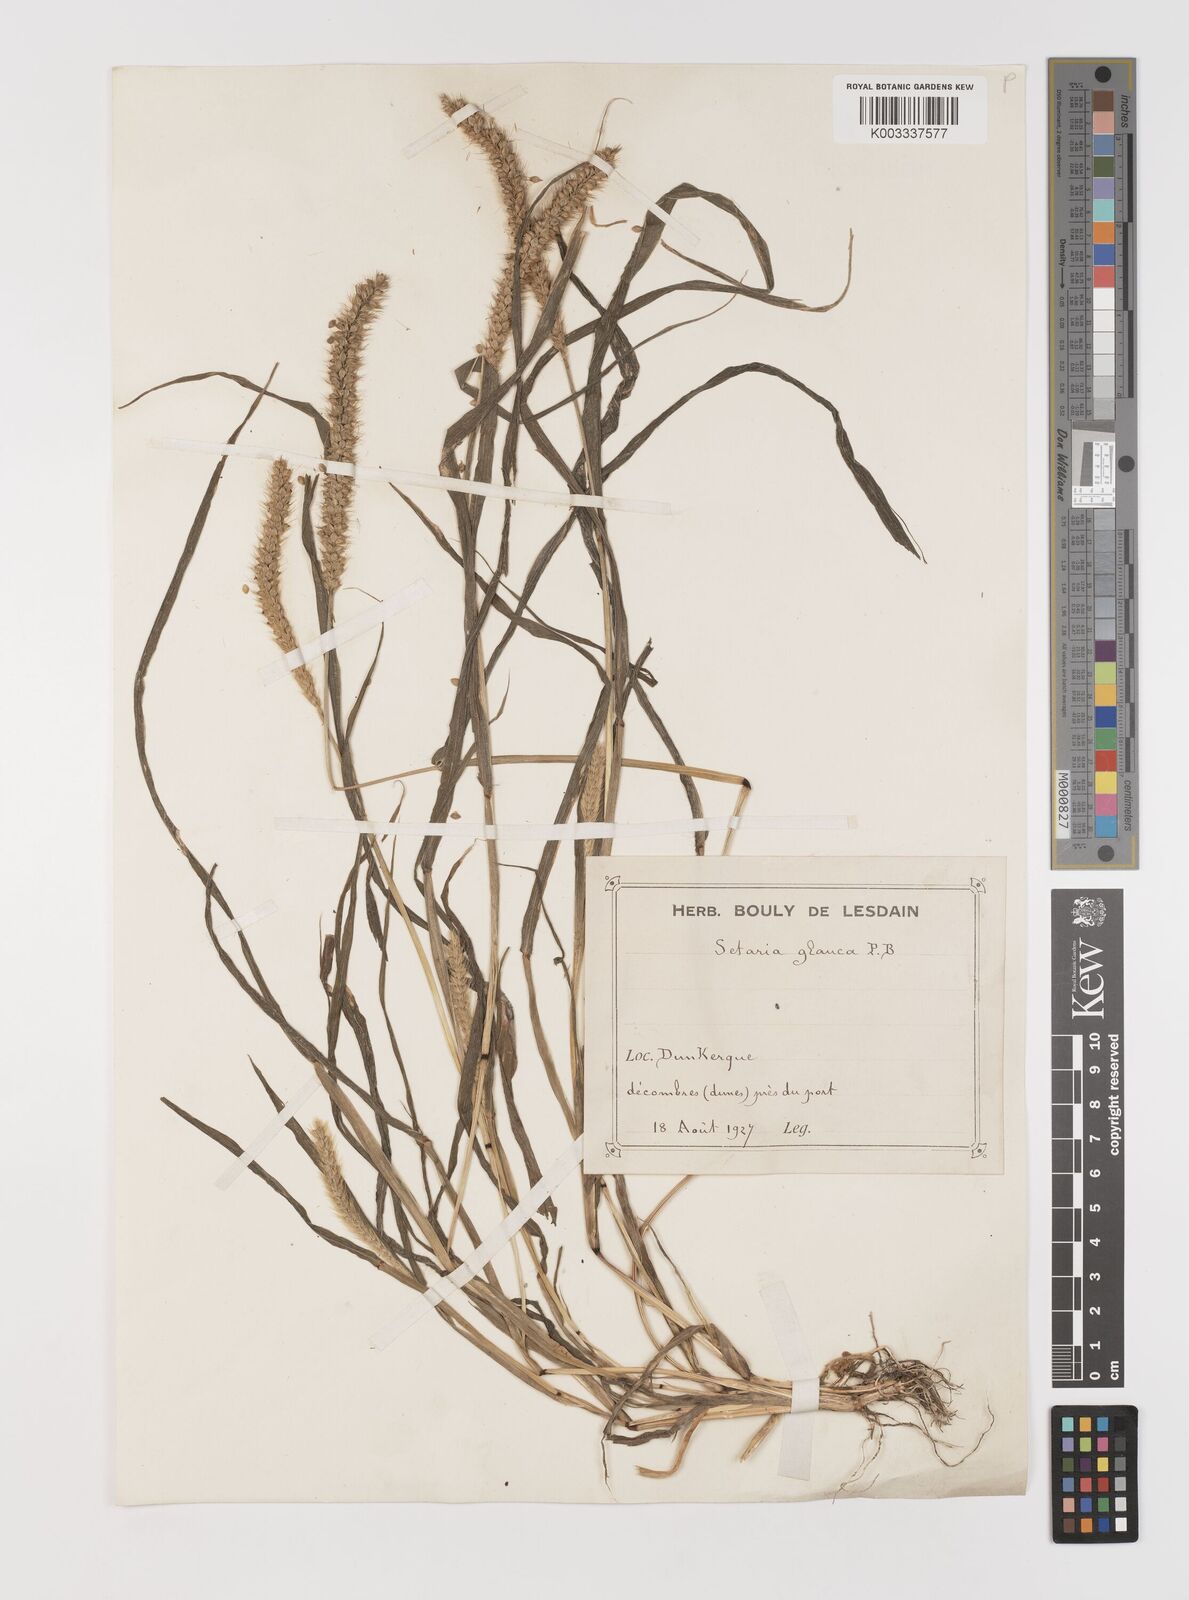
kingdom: Plantae
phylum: Tracheophyta
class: Liliopsida
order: Poales
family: Poaceae
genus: Setaria
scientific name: Setaria pumila
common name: Yellow bristle-grass
